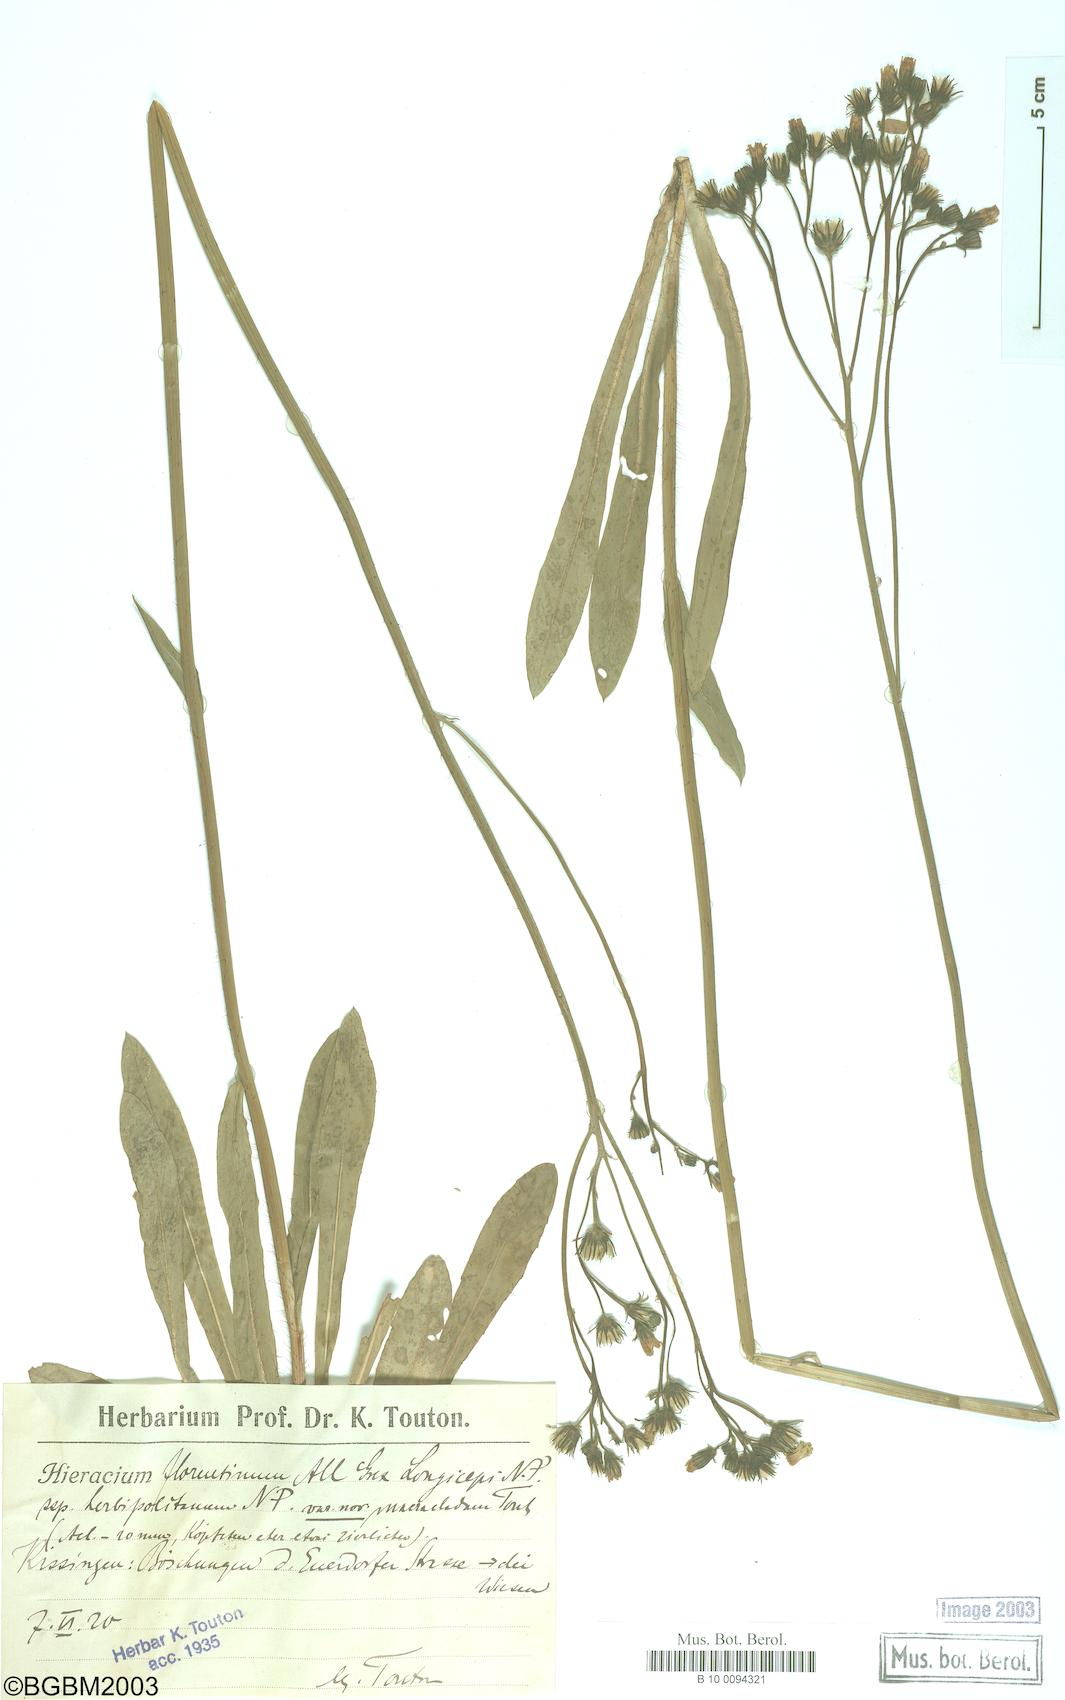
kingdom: Plantae
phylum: Tracheophyta
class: Magnoliopsida
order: Asterales
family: Asteraceae
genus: Hieracium
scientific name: Hieracium florentinum
